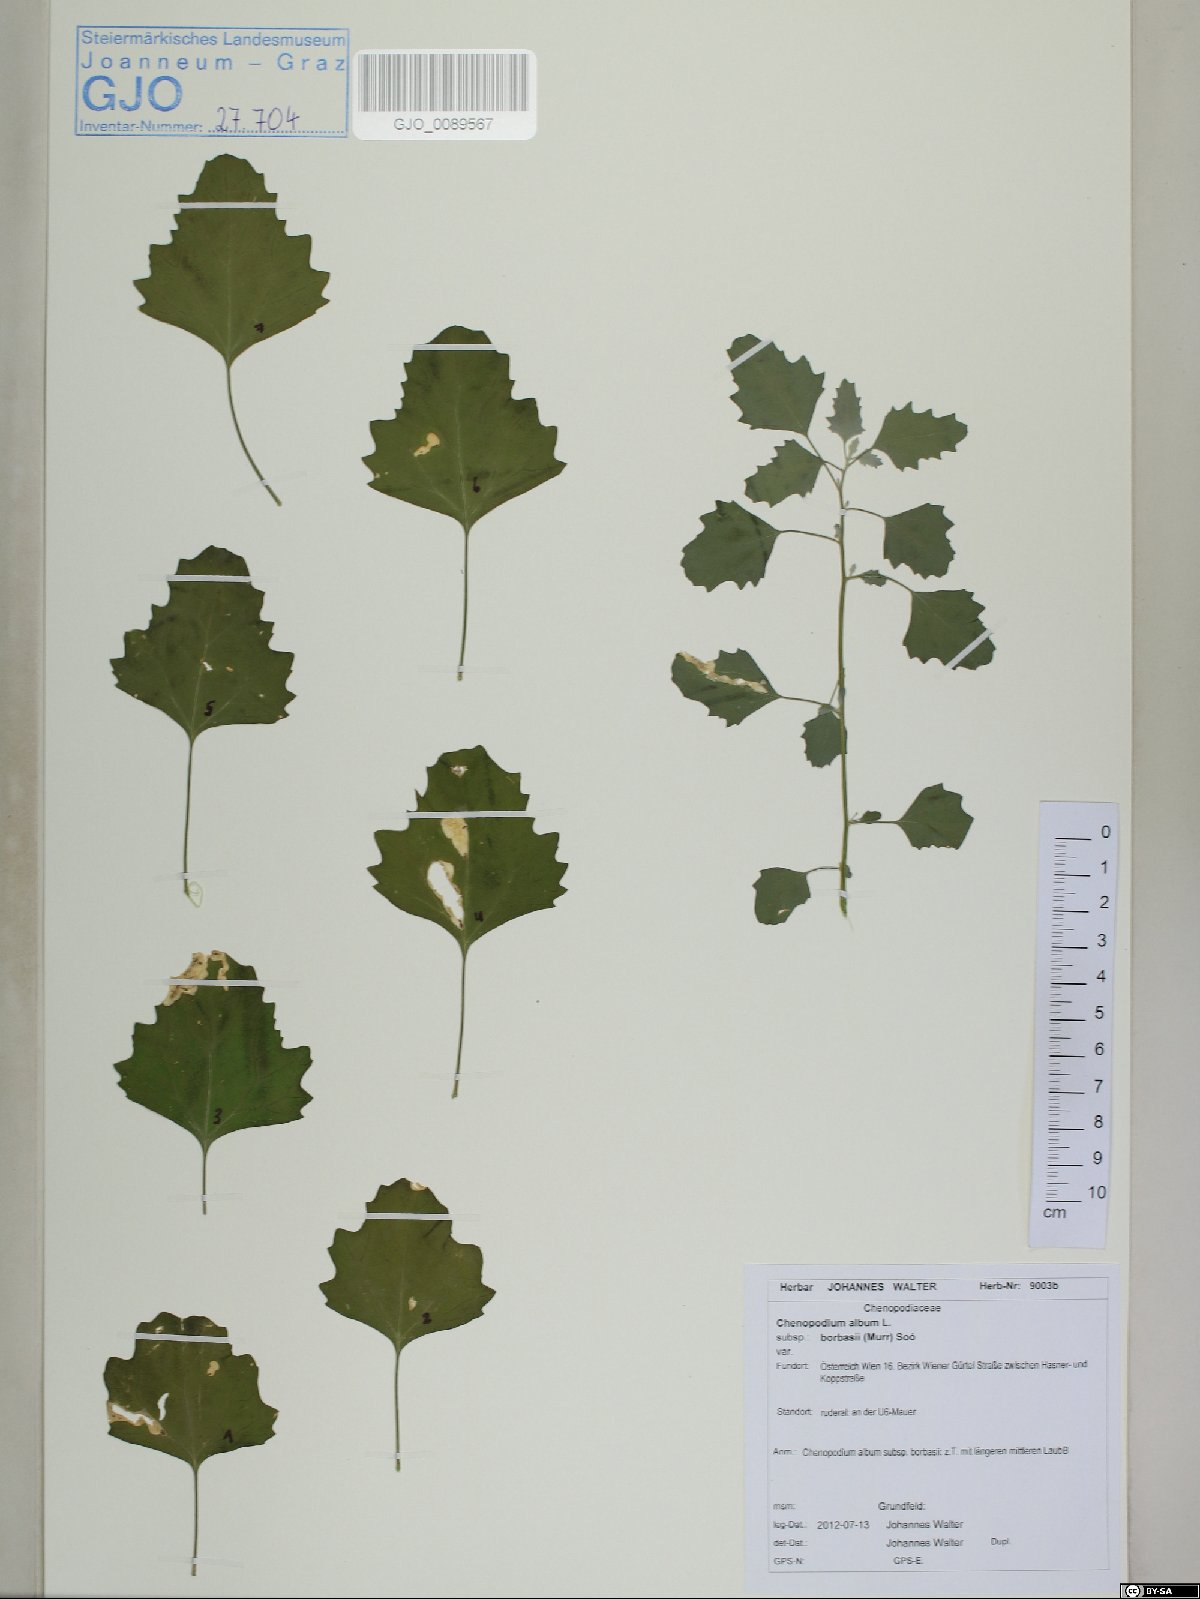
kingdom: Plantae
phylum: Tracheophyta
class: Magnoliopsida
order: Caryophyllales
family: Amaranthaceae
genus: Chenopodium
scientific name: Chenopodium borbasii
